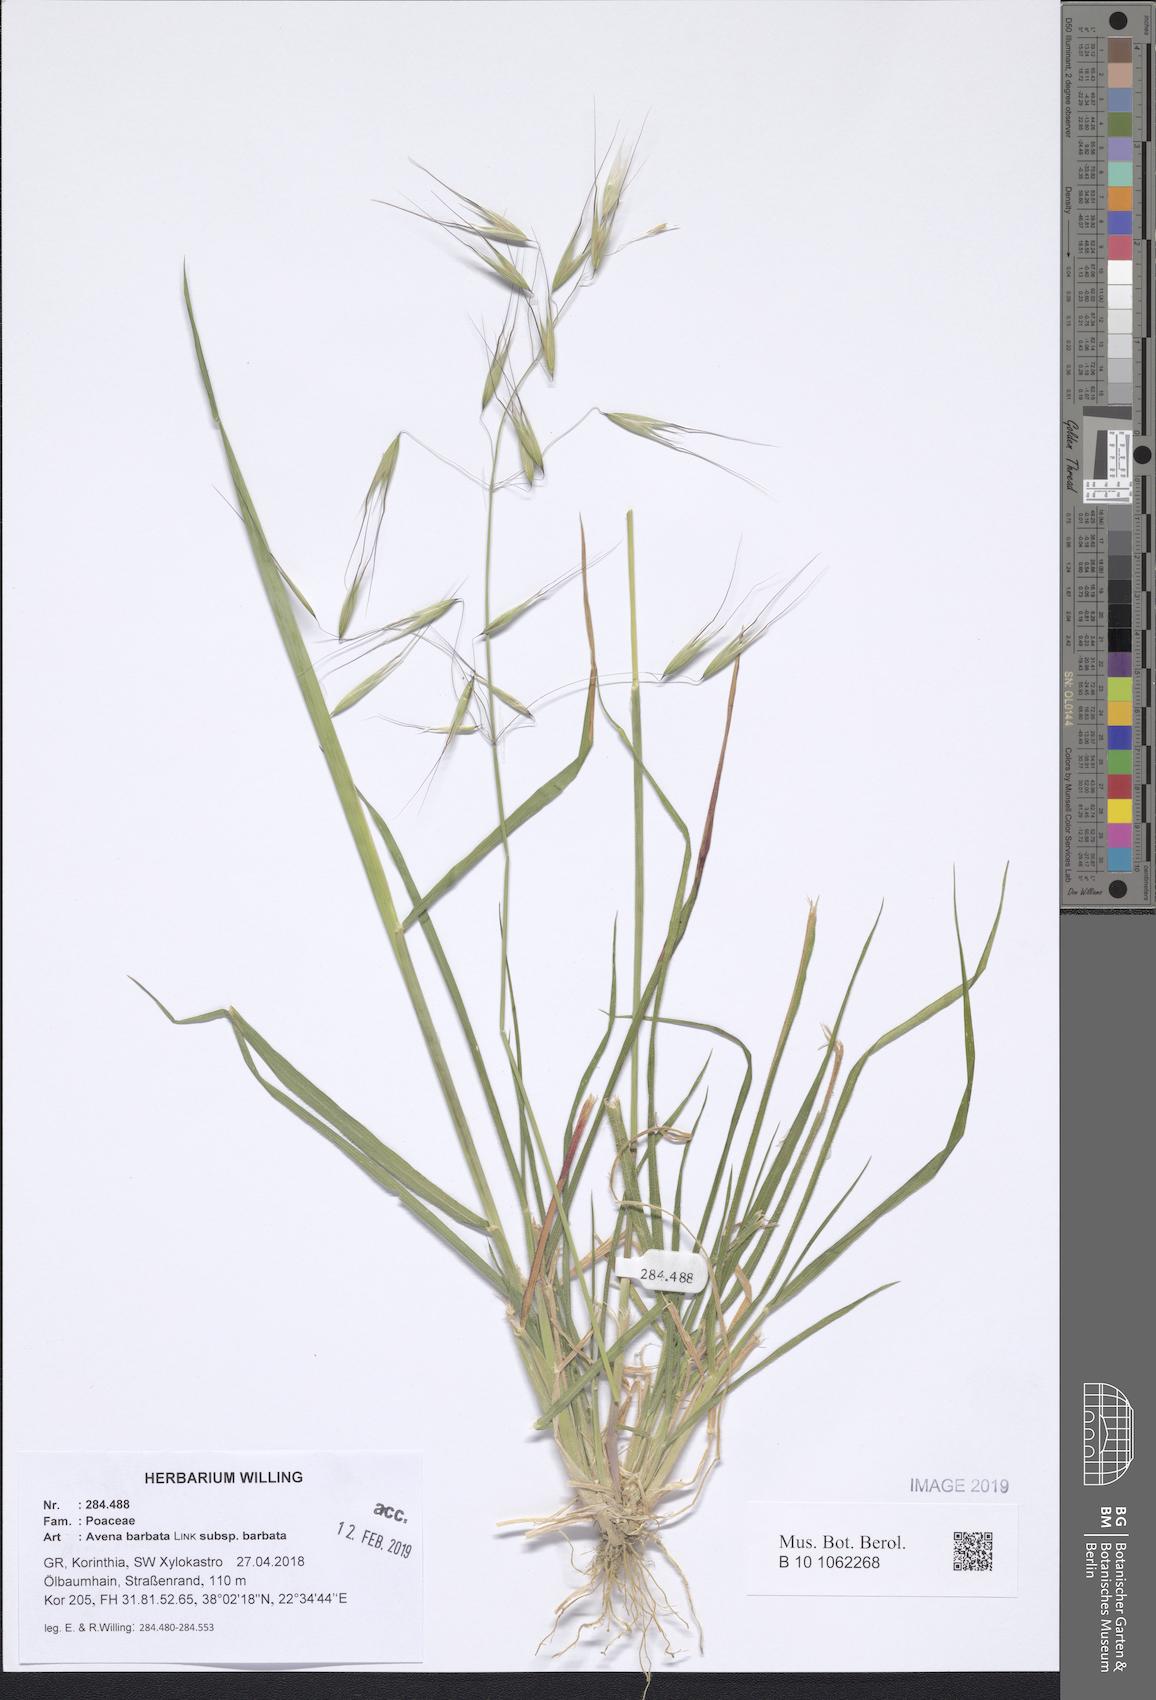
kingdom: Plantae
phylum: Tracheophyta
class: Liliopsida
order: Poales
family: Poaceae
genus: Avena
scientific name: Avena barbata
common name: Slender oat
